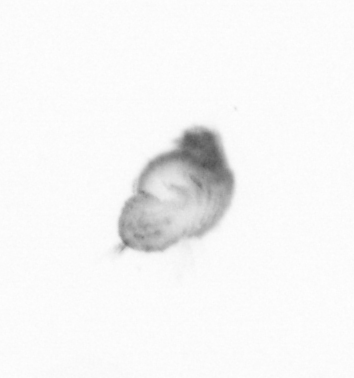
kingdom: Animalia
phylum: Annelida
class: Polychaeta
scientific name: Polychaeta
